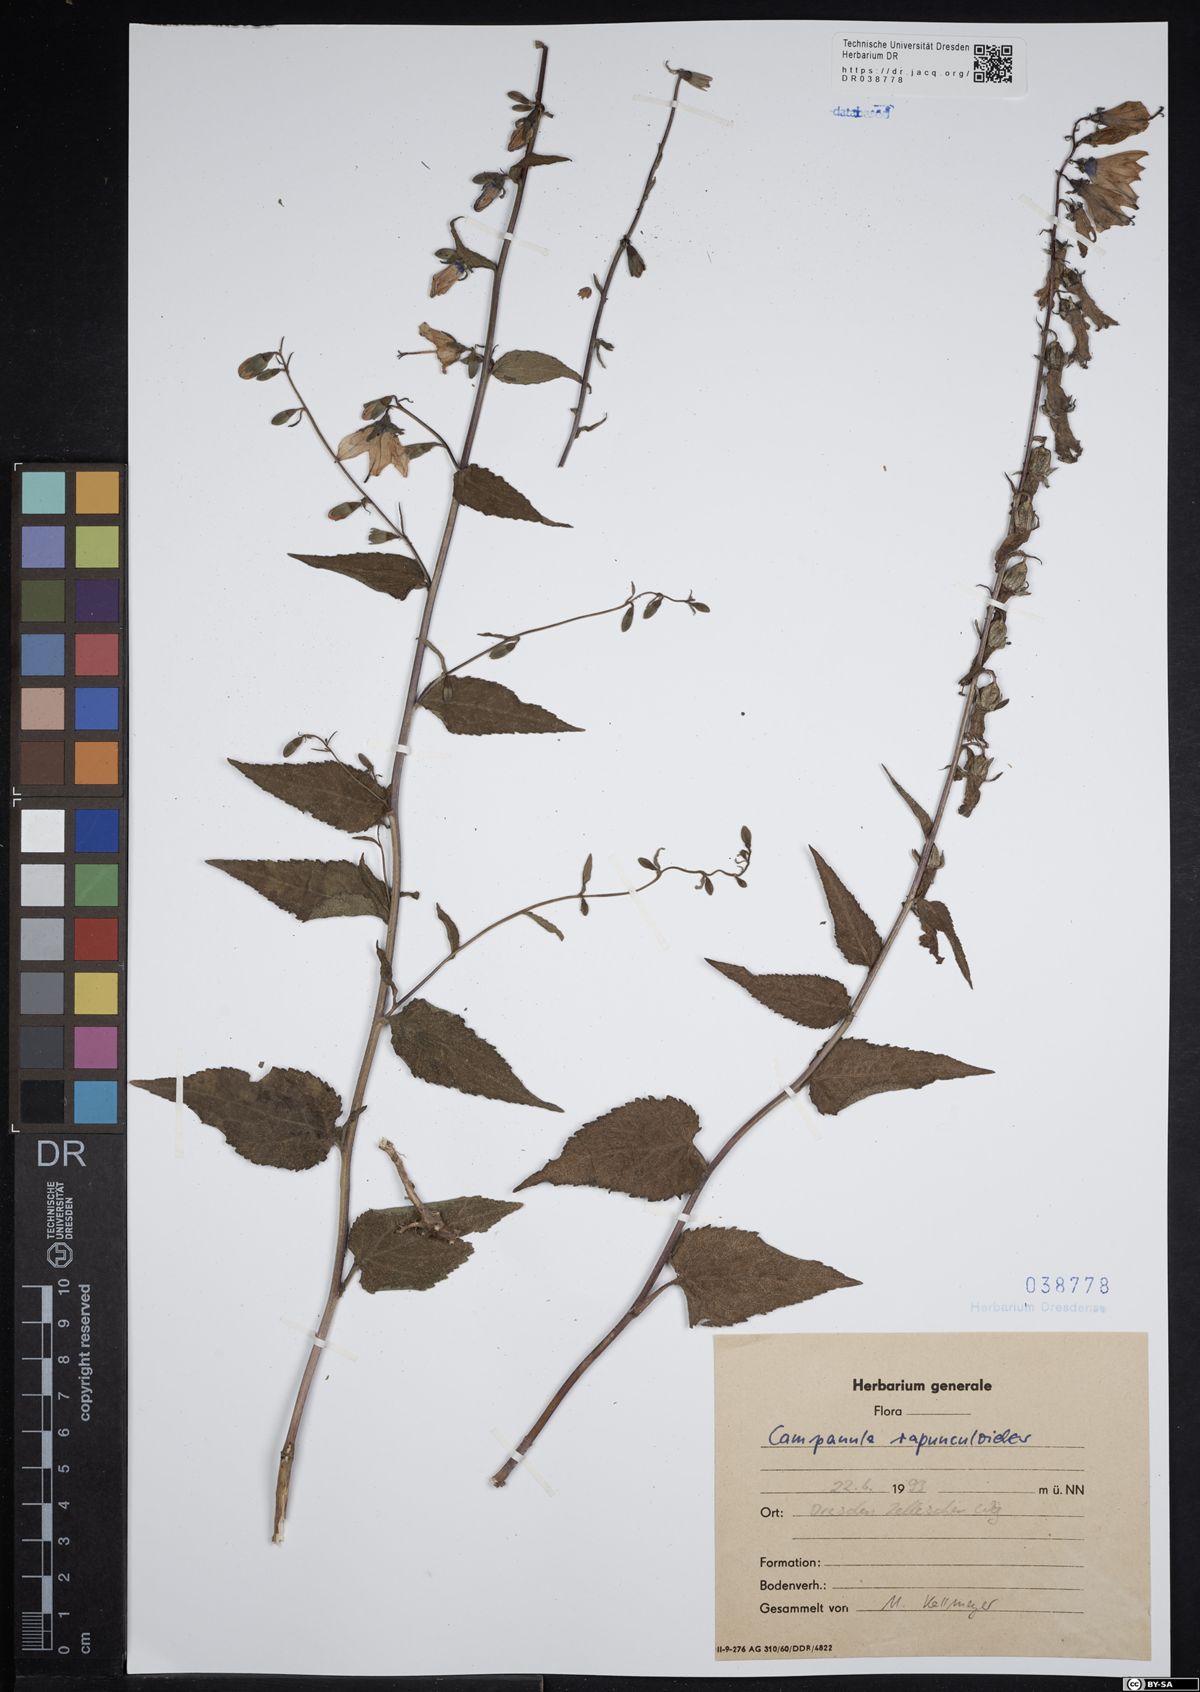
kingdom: Plantae
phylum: Tracheophyta
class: Magnoliopsida
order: Asterales
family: Campanulaceae
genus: Campanula
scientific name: Campanula rapunculoides
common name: Creeping bellflower
